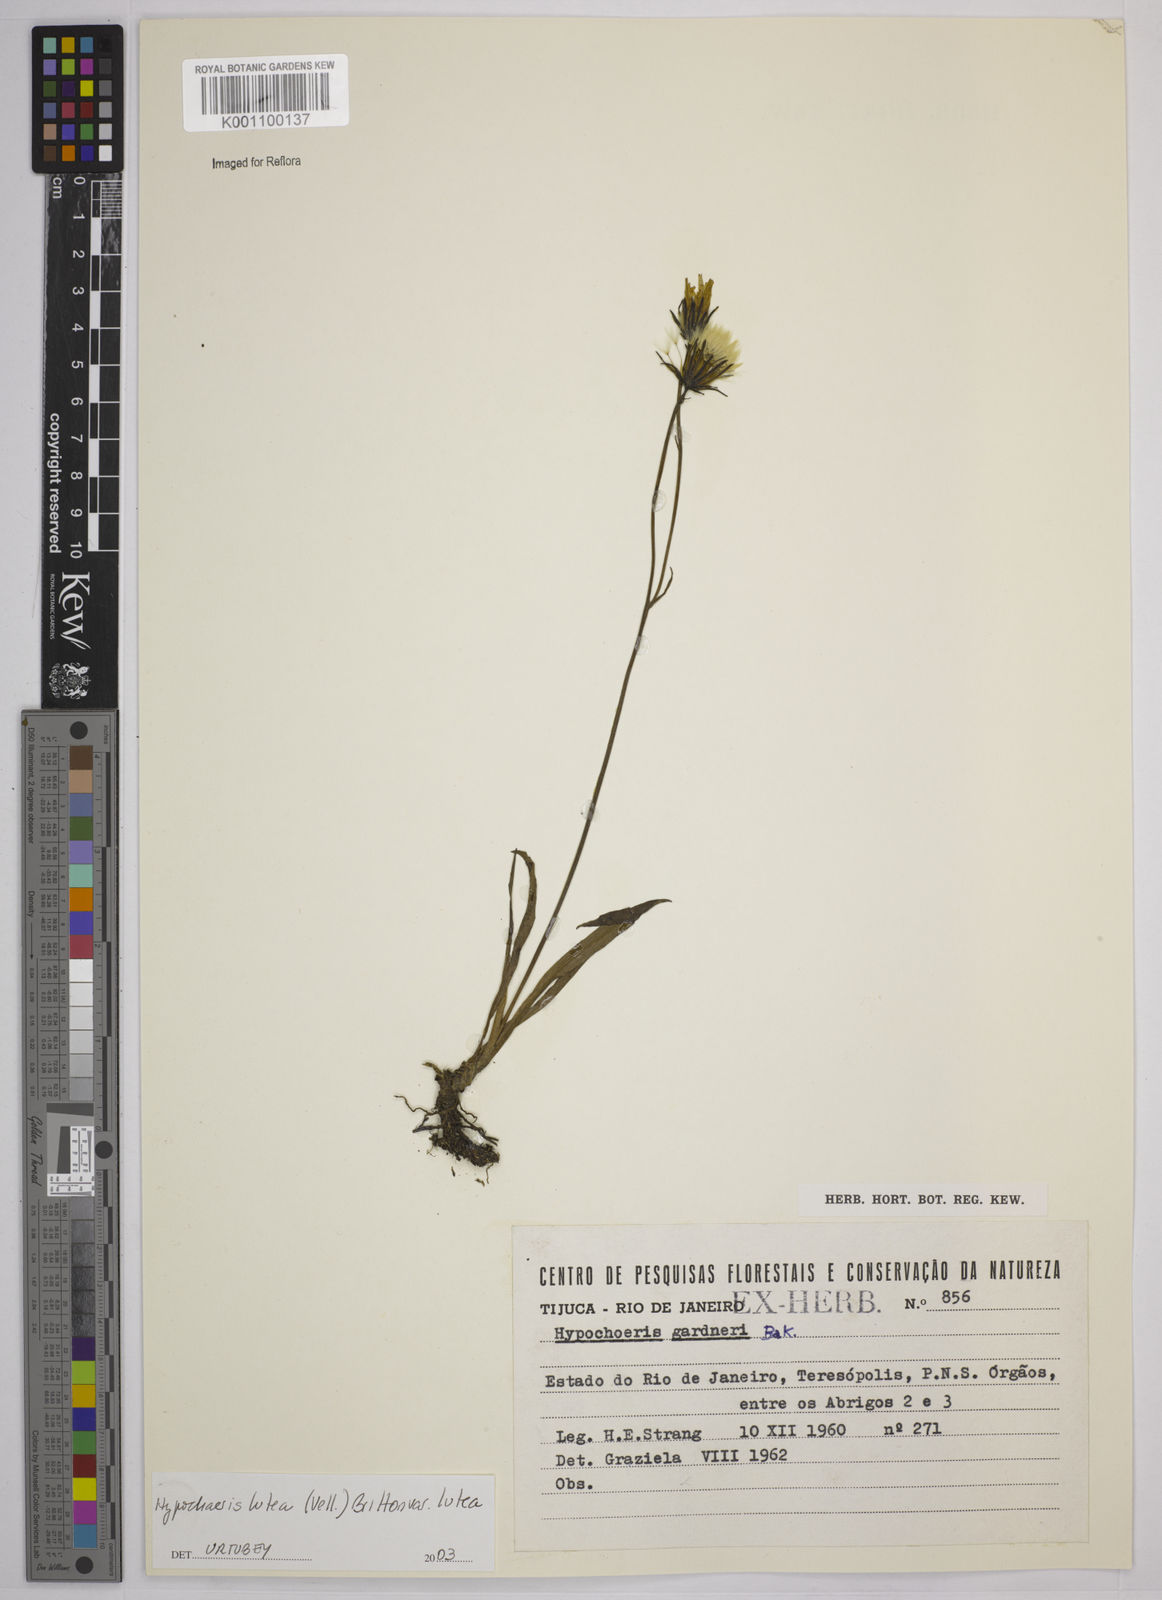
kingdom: Plantae
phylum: Tracheophyta
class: Magnoliopsida
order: Asterales
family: Asteraceae
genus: Hypochaeris
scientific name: Hypochaeris
